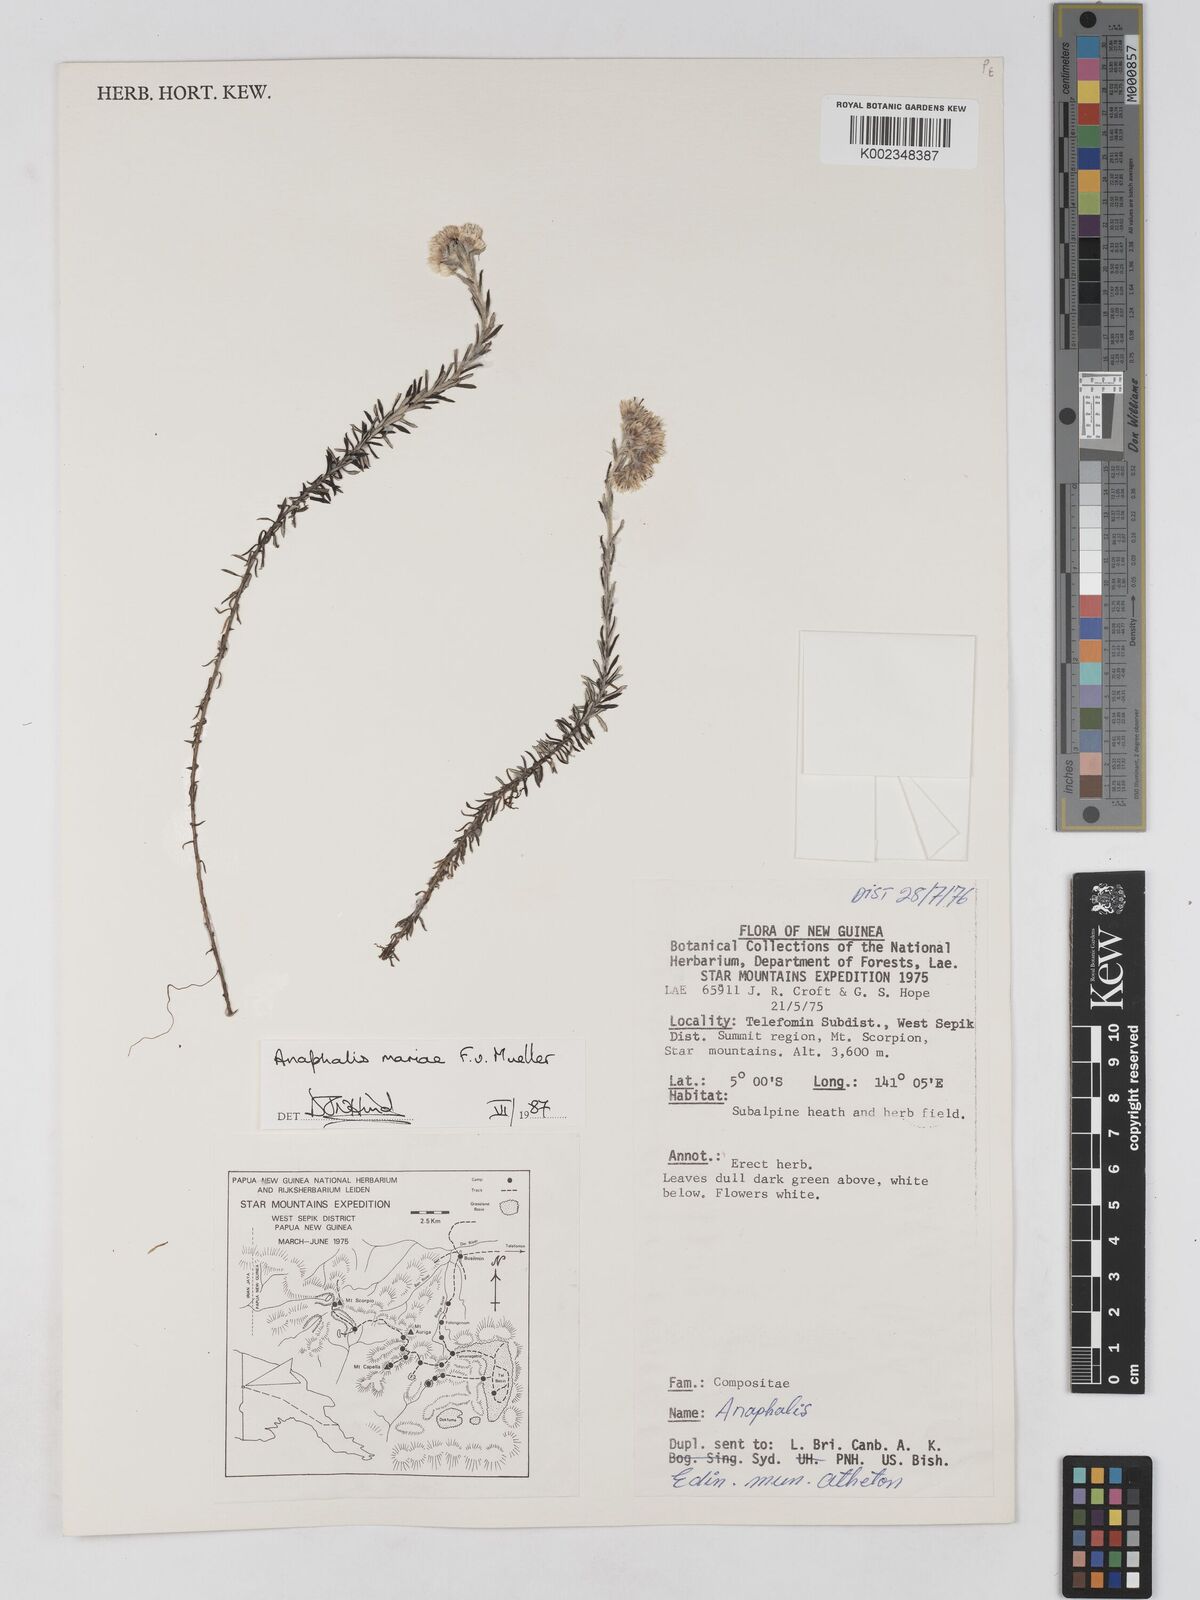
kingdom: Plantae
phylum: Tracheophyta
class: Magnoliopsida
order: Asterales
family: Asteraceae
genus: Anaphalioides
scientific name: Anaphalioides mariae
